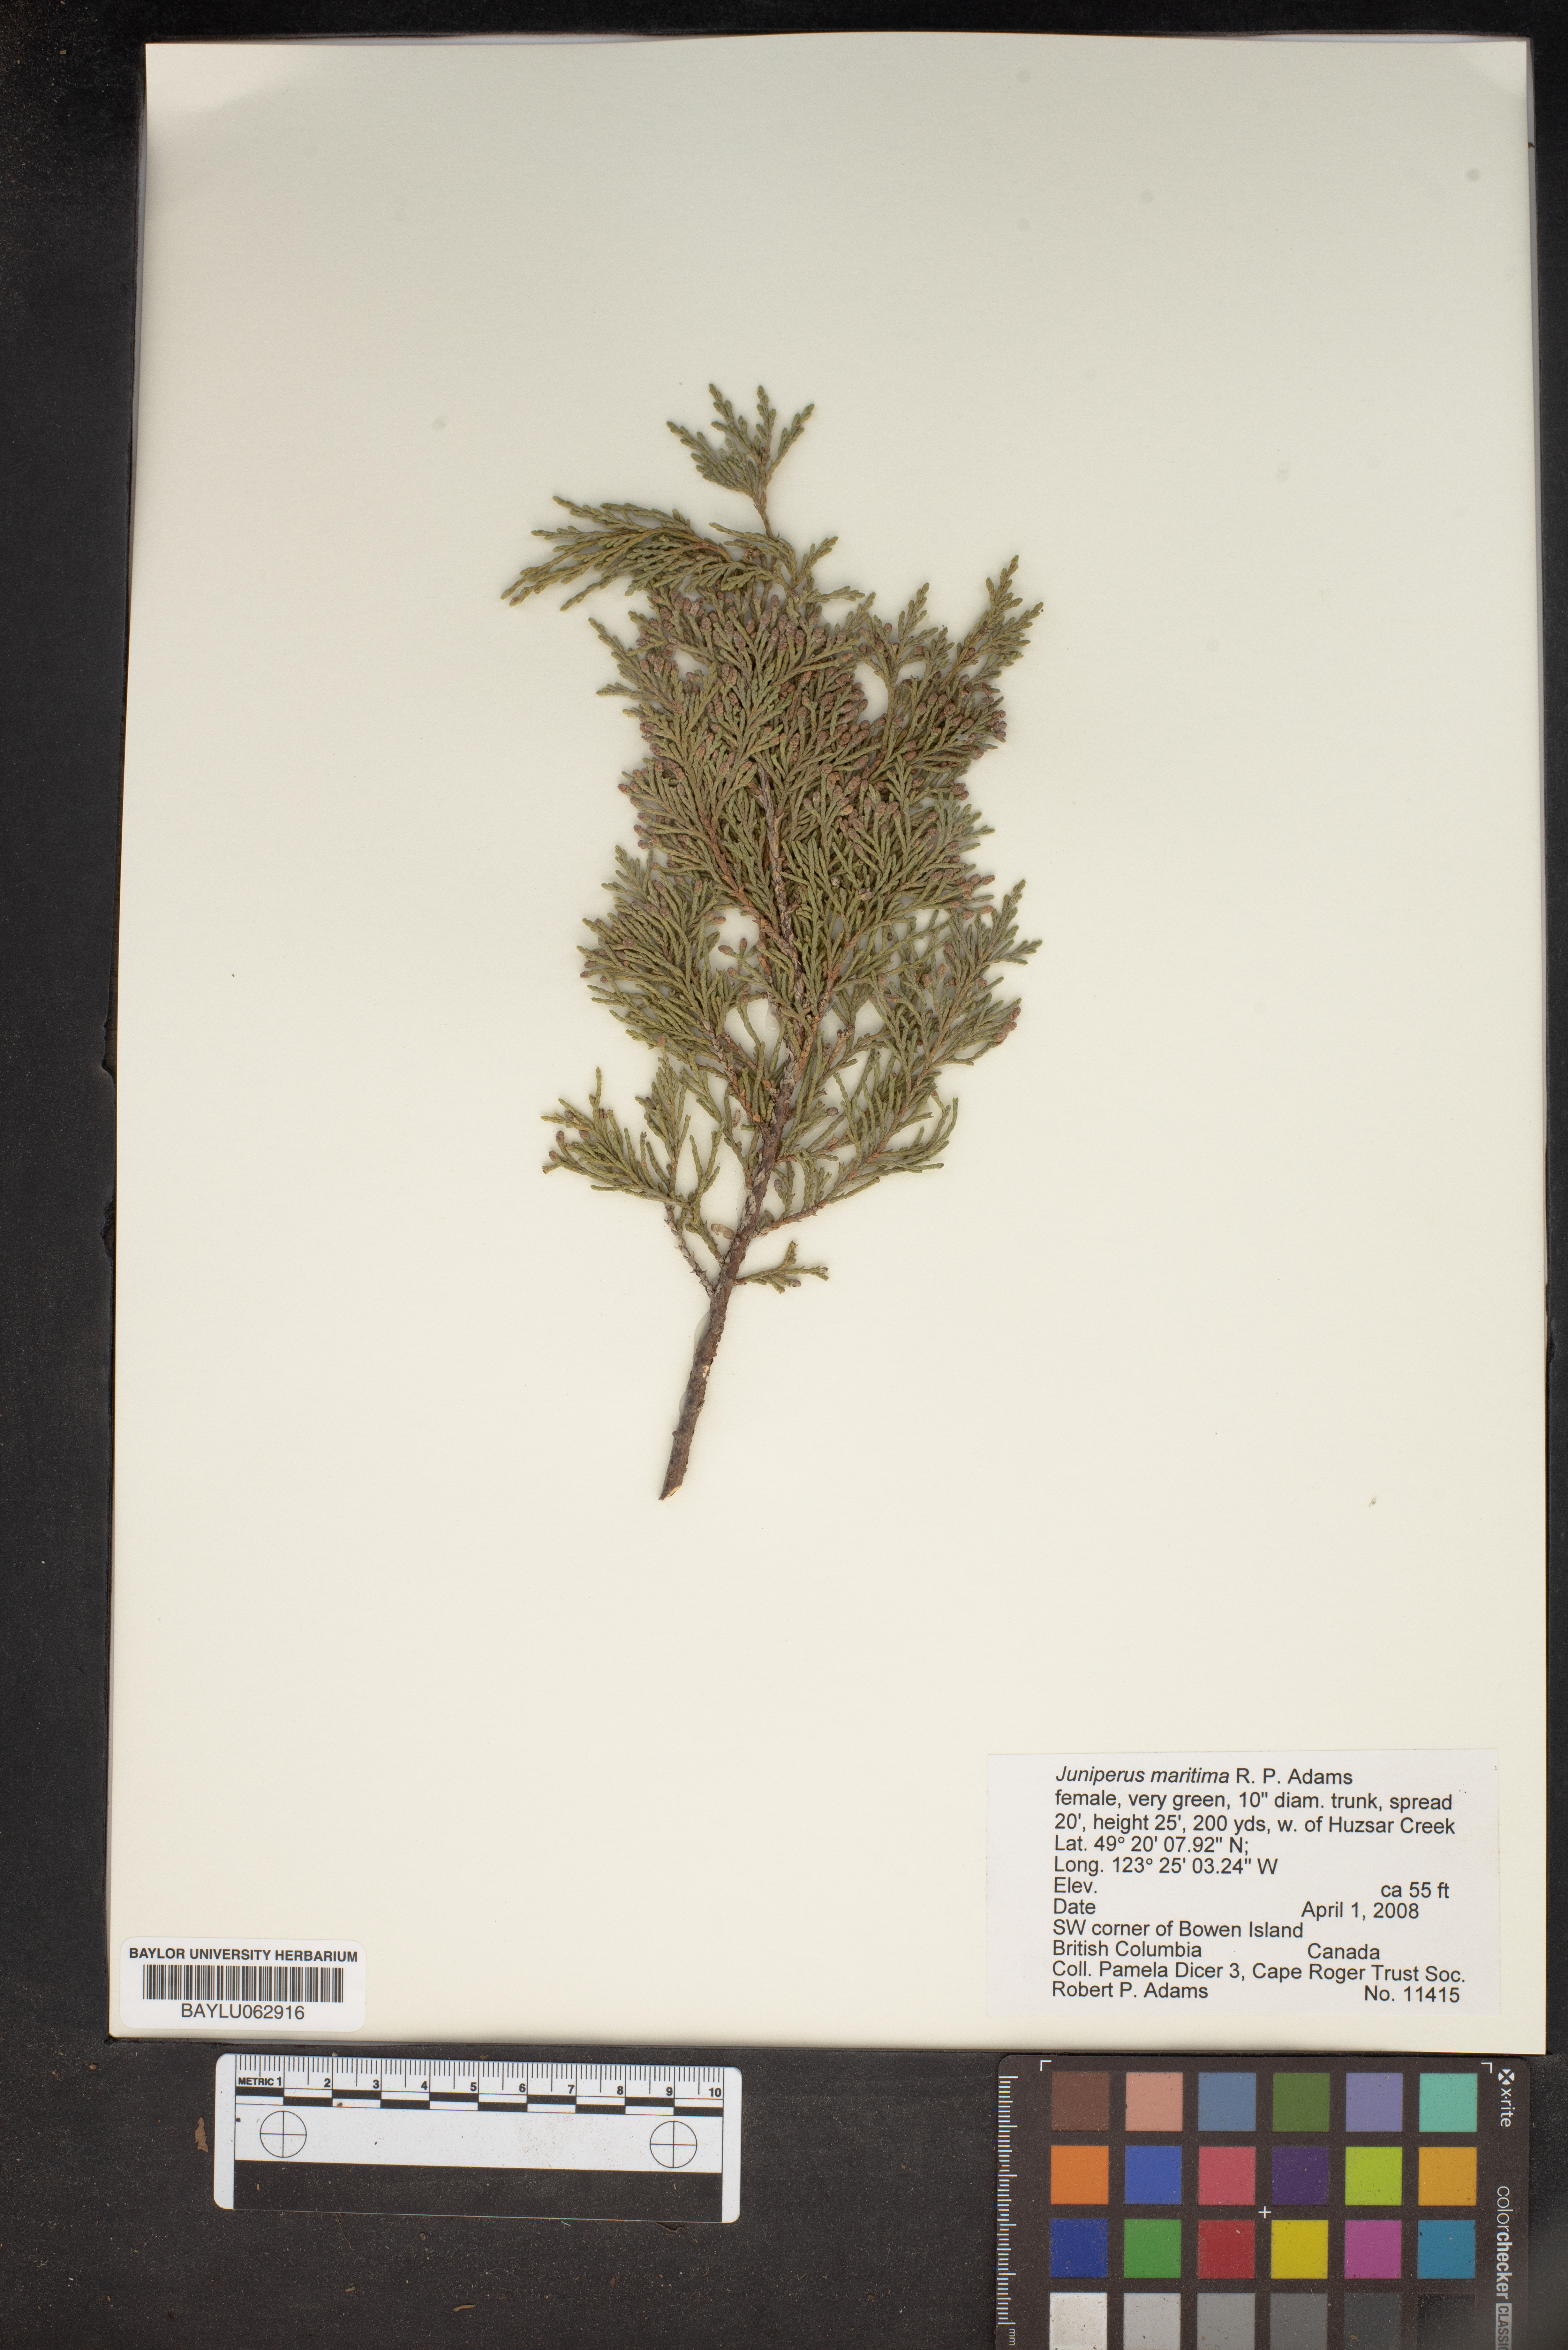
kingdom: Plantae
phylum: Tracheophyta
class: Pinopsida
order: Pinales
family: Cupressaceae
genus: Juniperus
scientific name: Juniperus scopulorum
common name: Rocky mountain juniper
